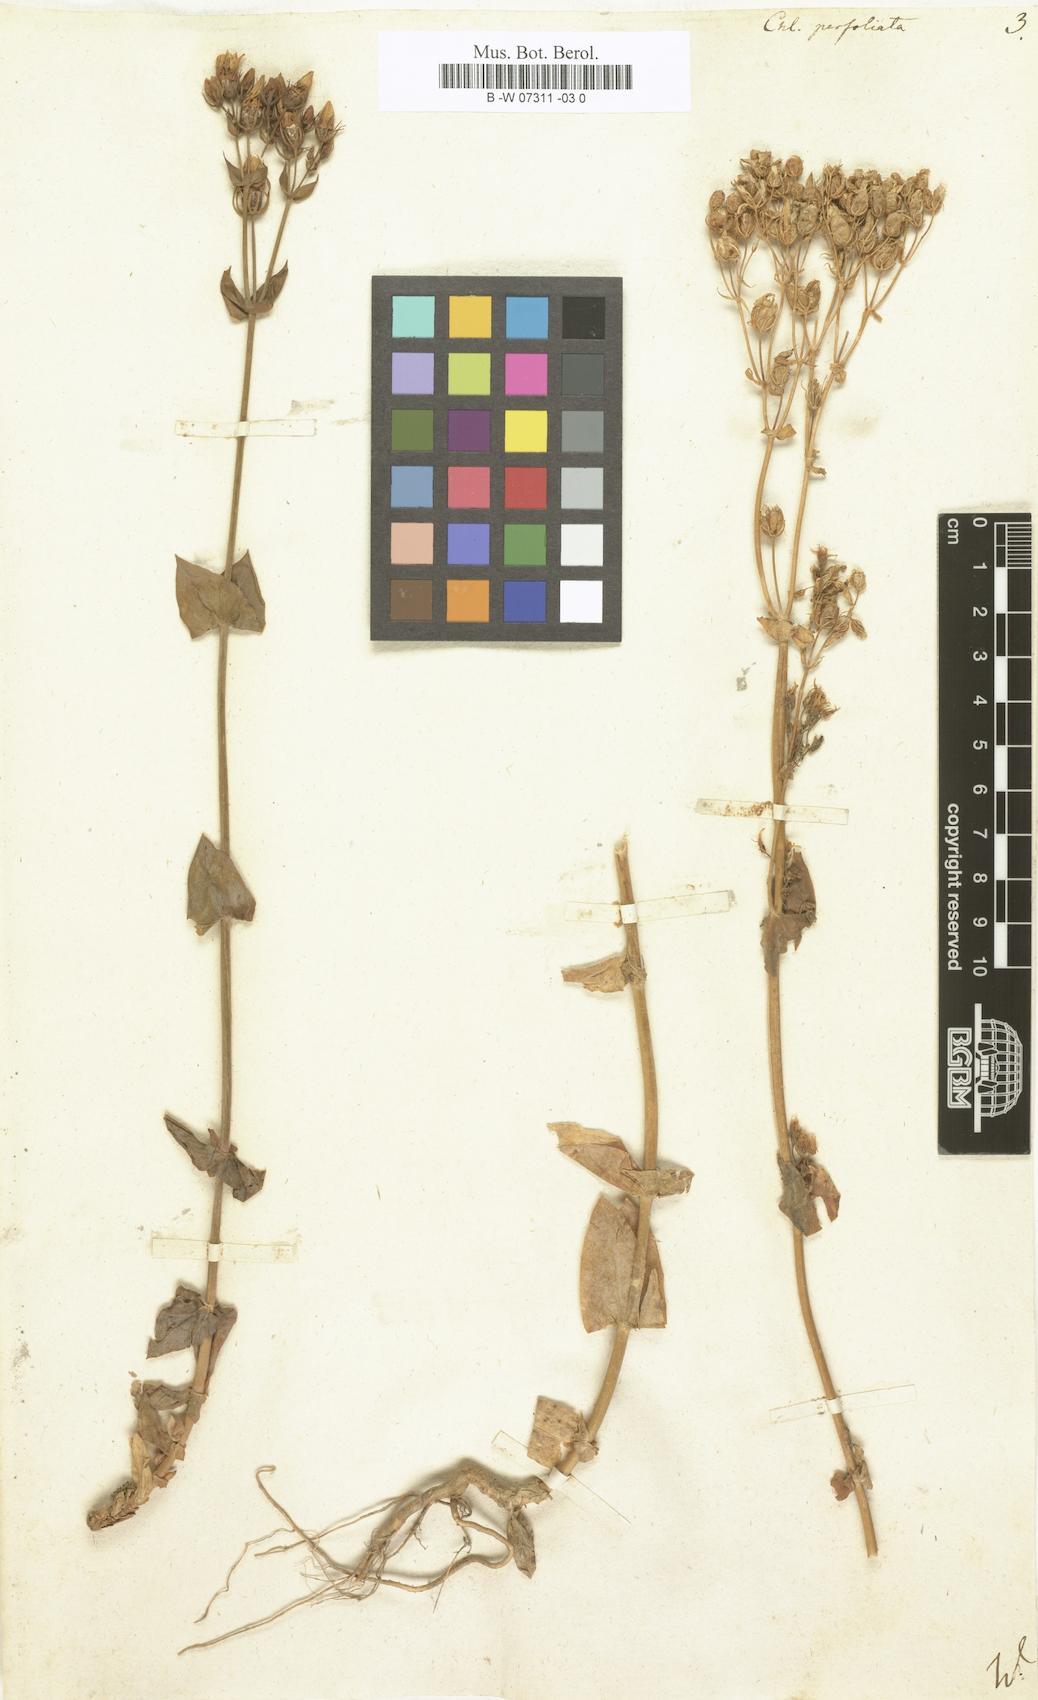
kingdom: Plantae
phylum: Tracheophyta
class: Magnoliopsida
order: Gentianales
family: Gentianaceae
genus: Blackstonia
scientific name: Blackstonia
